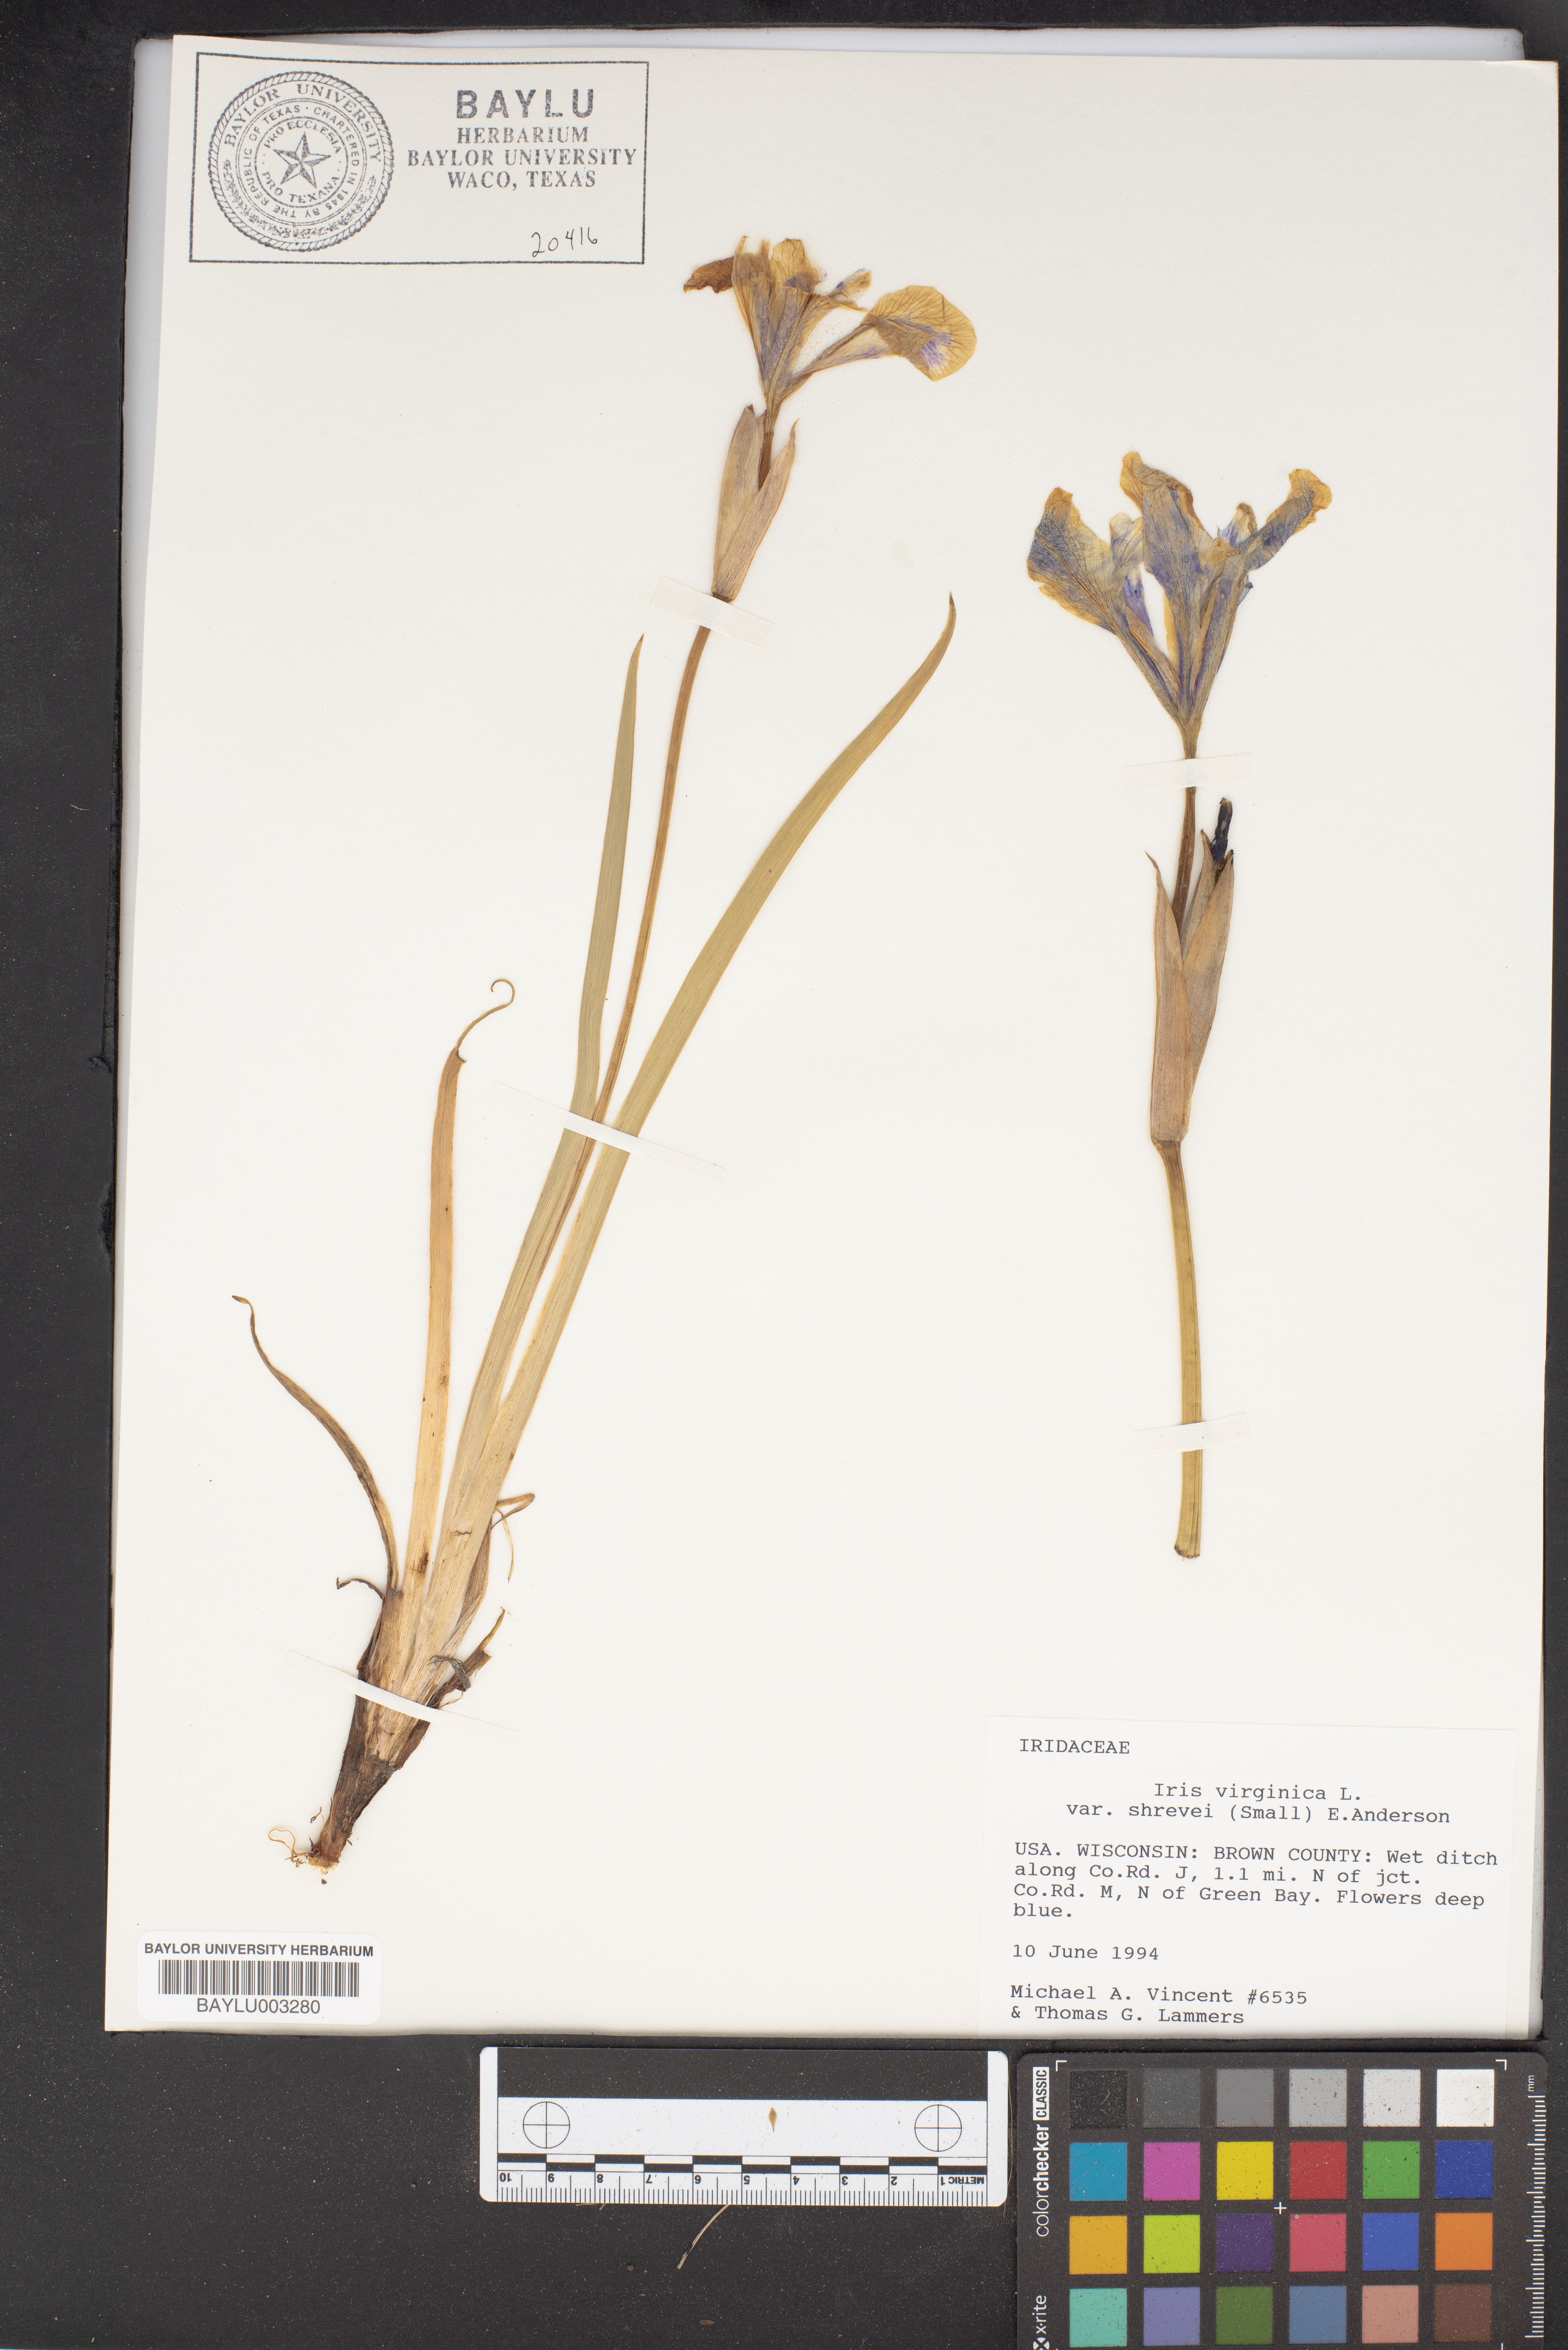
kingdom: Plantae
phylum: Tracheophyta
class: Liliopsida
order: Asparagales
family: Iridaceae
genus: Iris
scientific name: Iris virginica
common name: Southern blue flag
